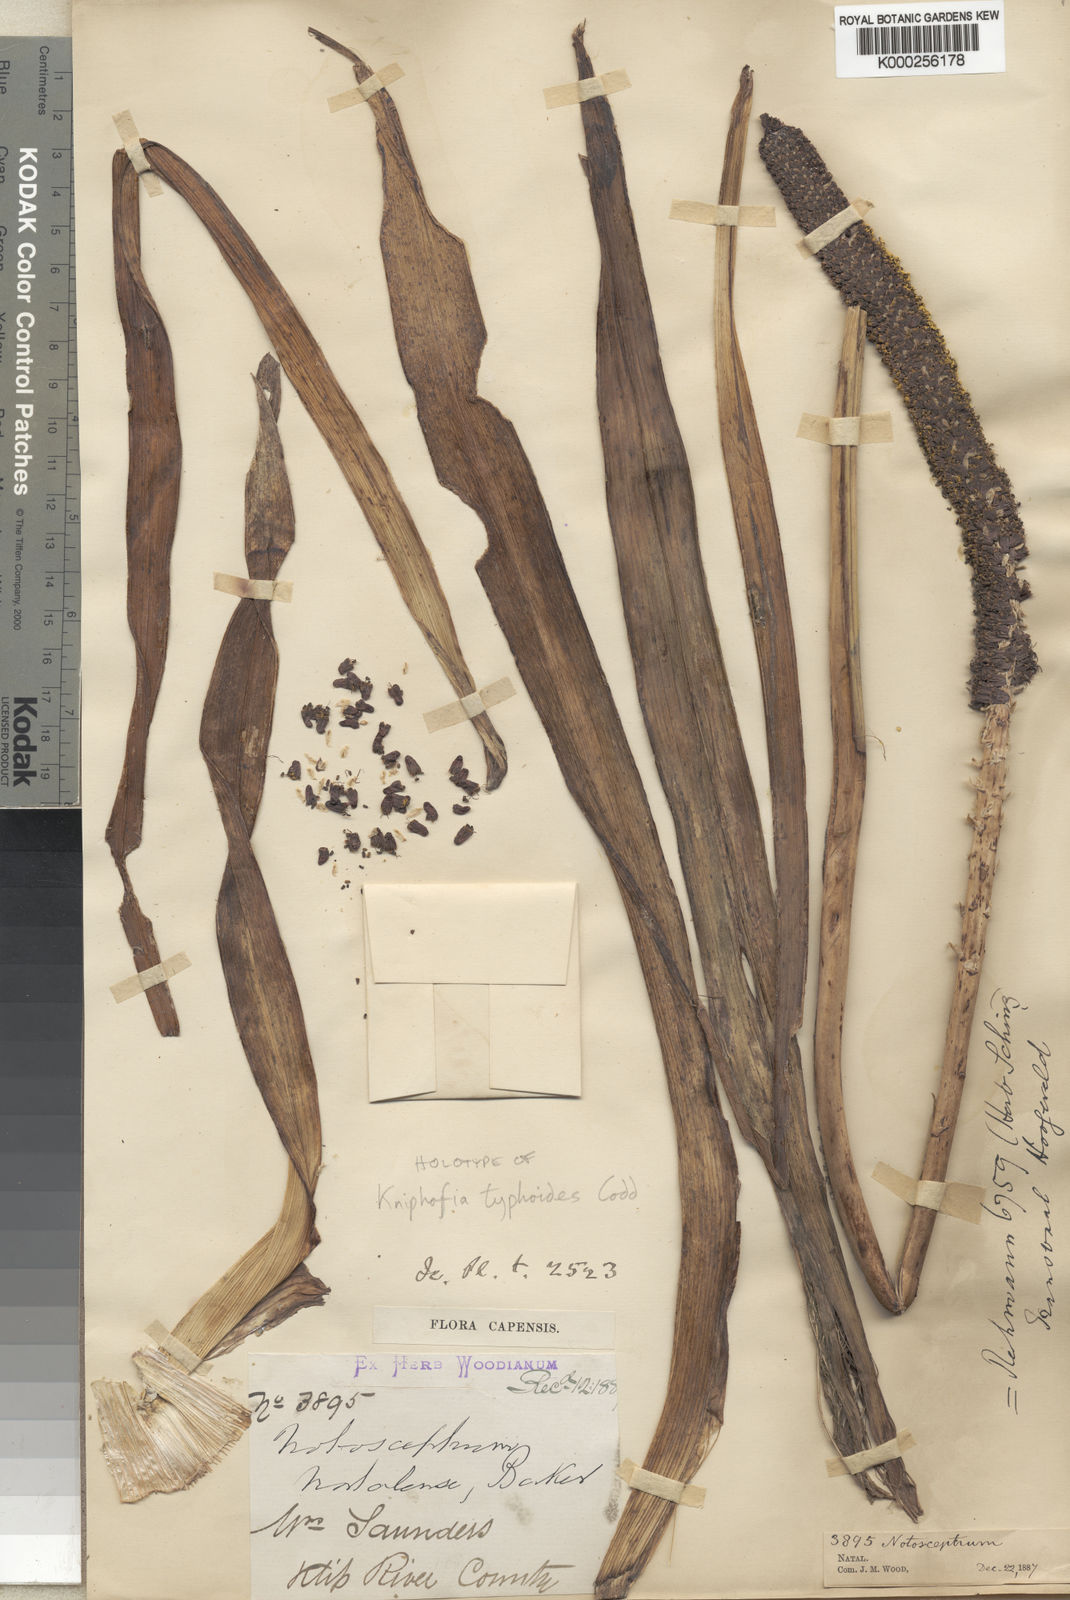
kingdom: Plantae
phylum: Tracheophyta
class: Liliopsida
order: Asparagales
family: Asphodelaceae
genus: Kniphofia
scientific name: Kniphofia typhoides
